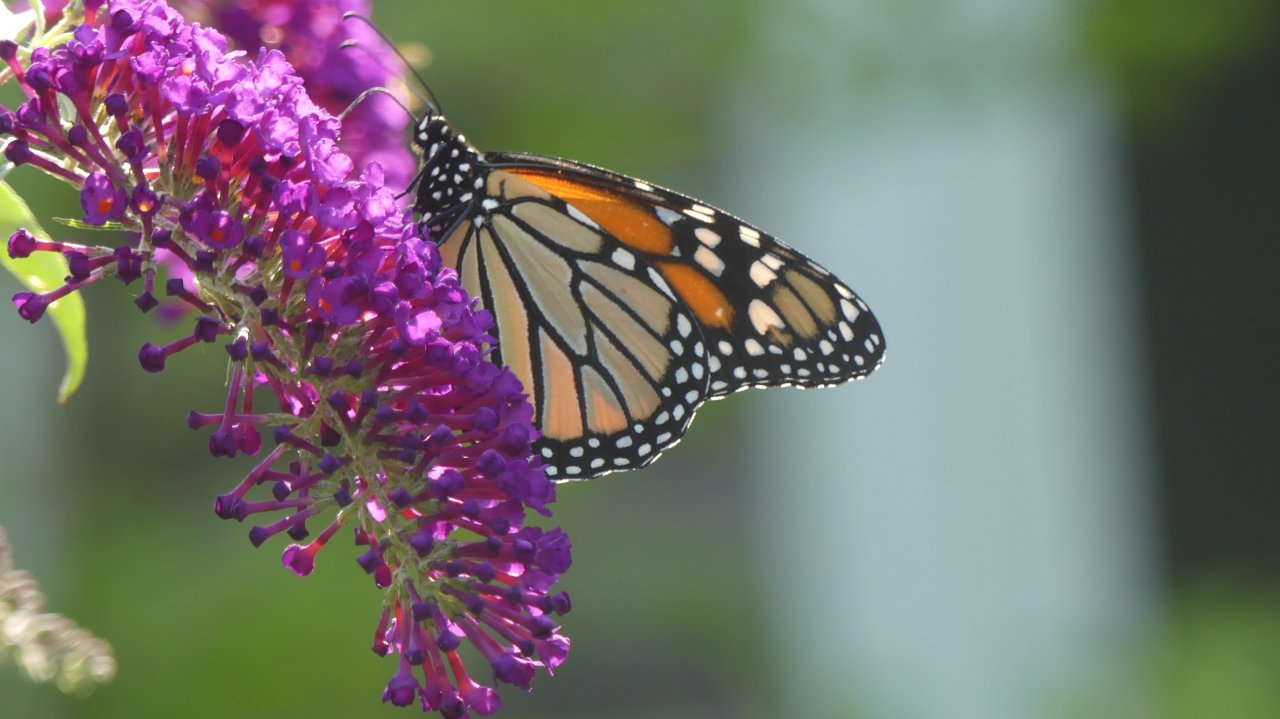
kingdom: Animalia
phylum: Arthropoda
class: Insecta
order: Lepidoptera
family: Nymphalidae
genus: Danaus
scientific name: Danaus plexippus
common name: Monarch
